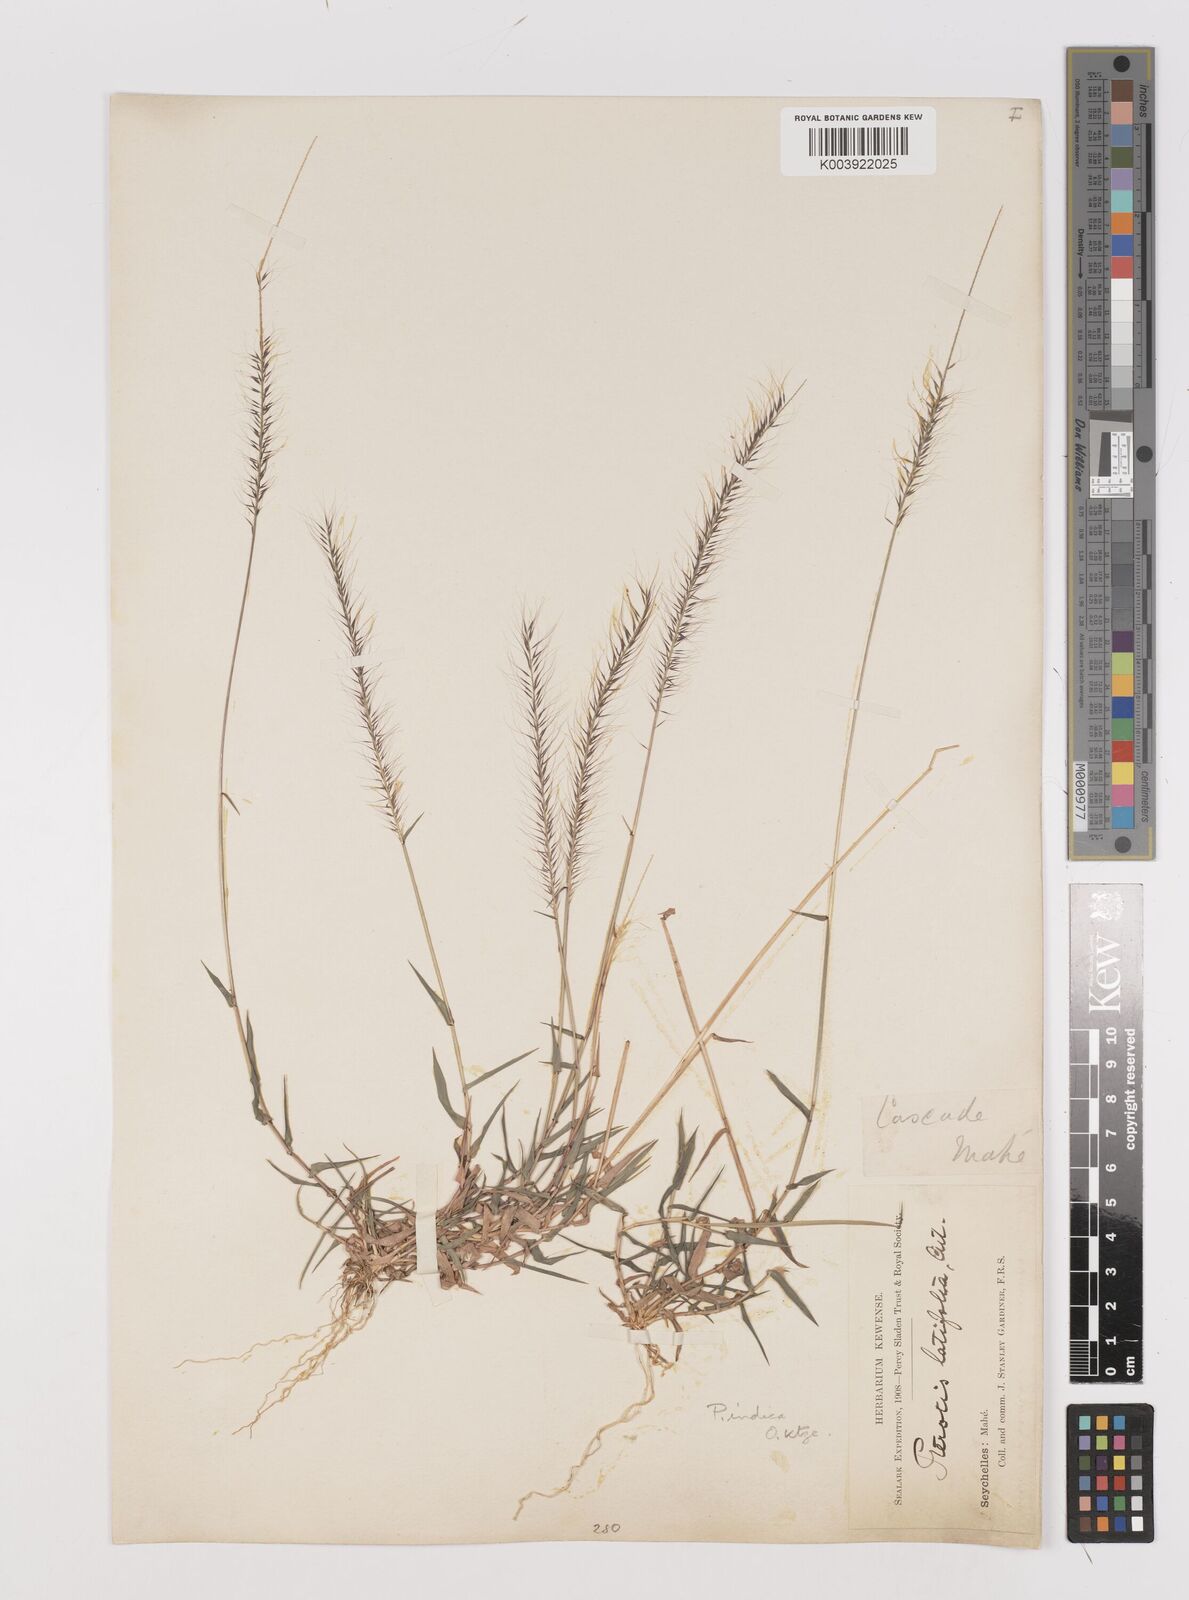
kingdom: Plantae
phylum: Tracheophyta
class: Liliopsida
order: Poales
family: Poaceae
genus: Perotis
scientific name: Perotis hildebrandtii
